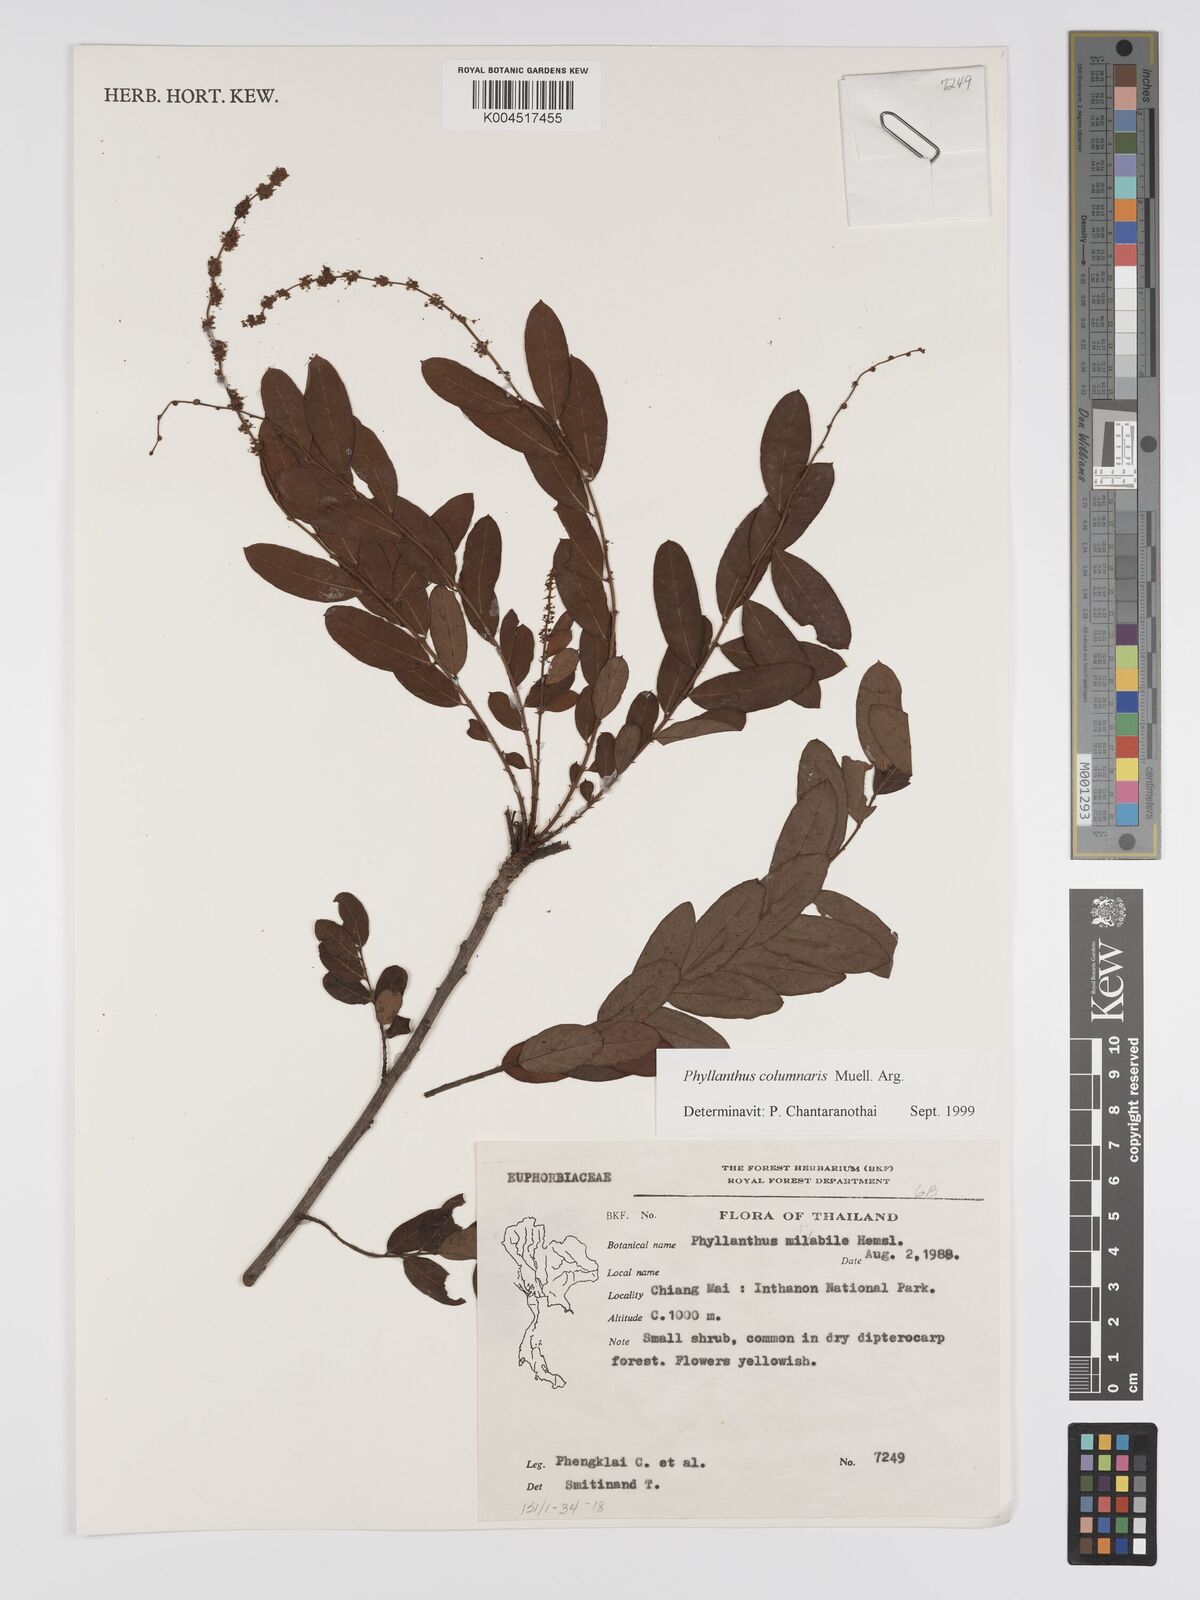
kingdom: Plantae
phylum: Tracheophyta
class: Magnoliopsida
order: Malpighiales
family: Phyllanthaceae
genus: Phyllanthus
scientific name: Phyllanthus
